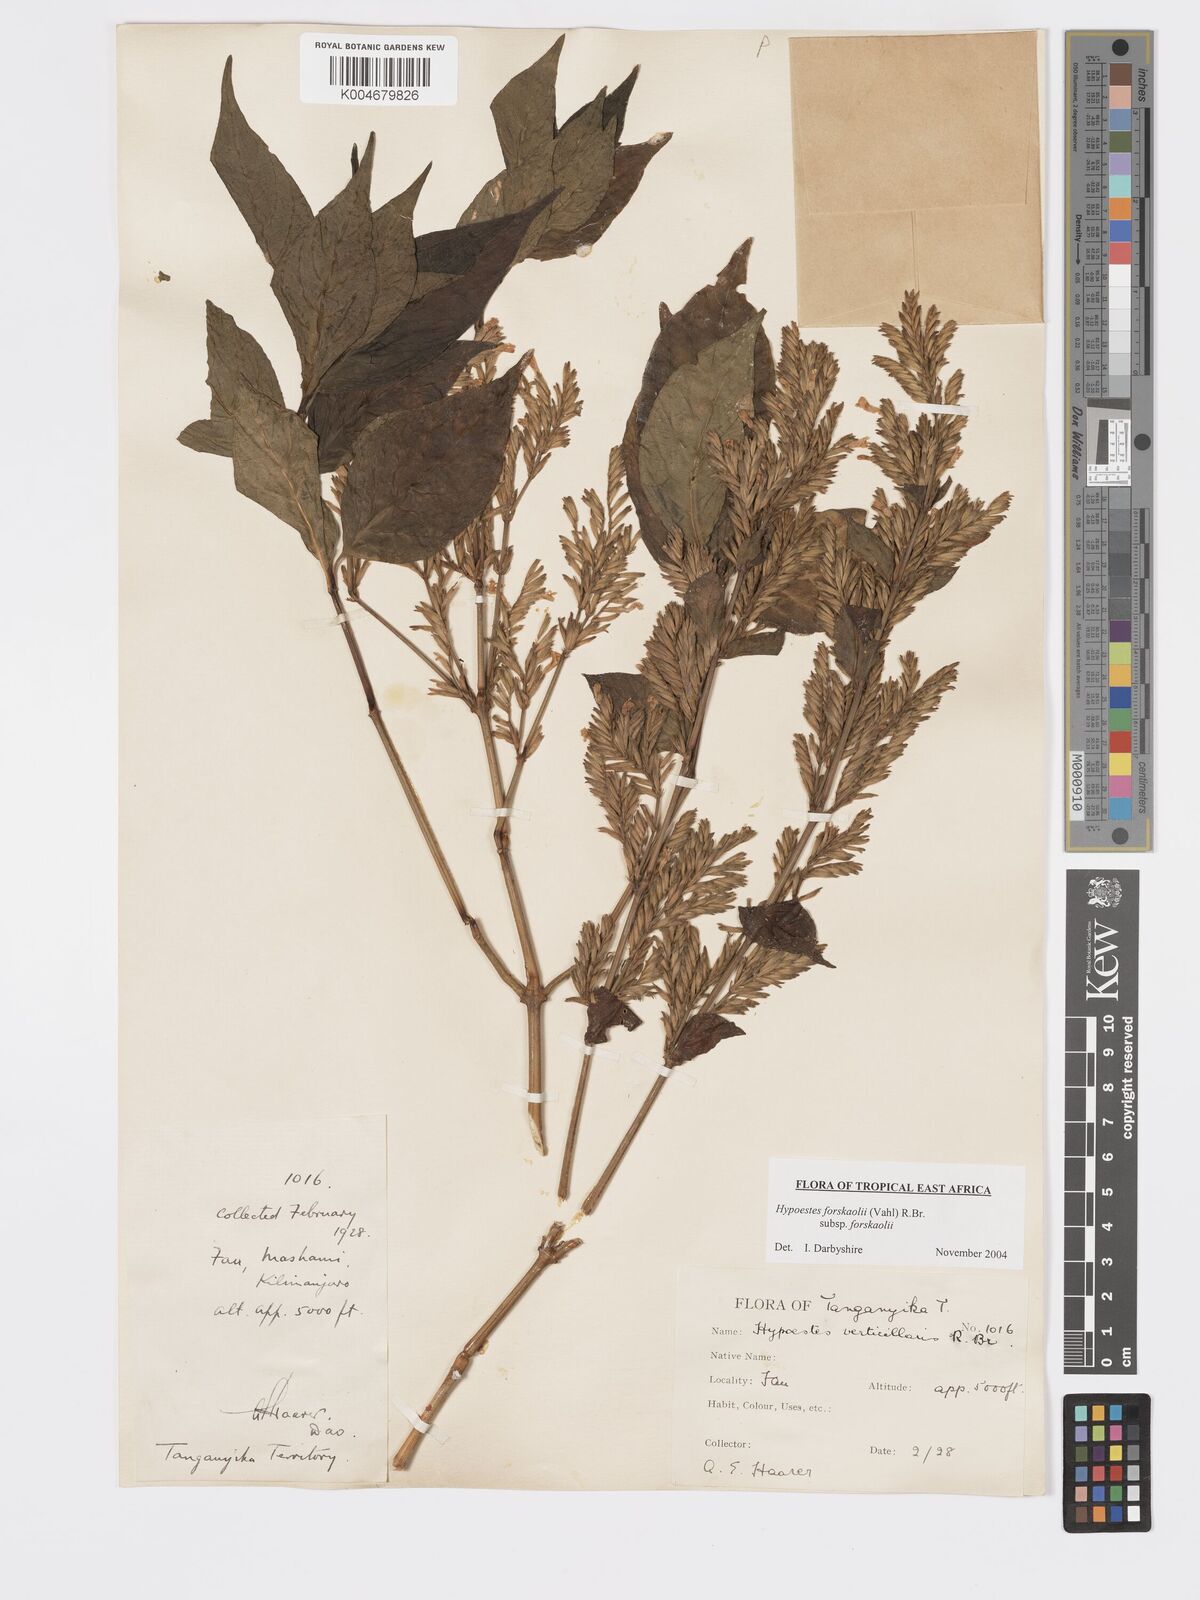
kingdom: Plantae
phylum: Tracheophyta
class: Magnoliopsida
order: Lamiales
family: Acanthaceae
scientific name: Acanthaceae
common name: Acanthaceae
